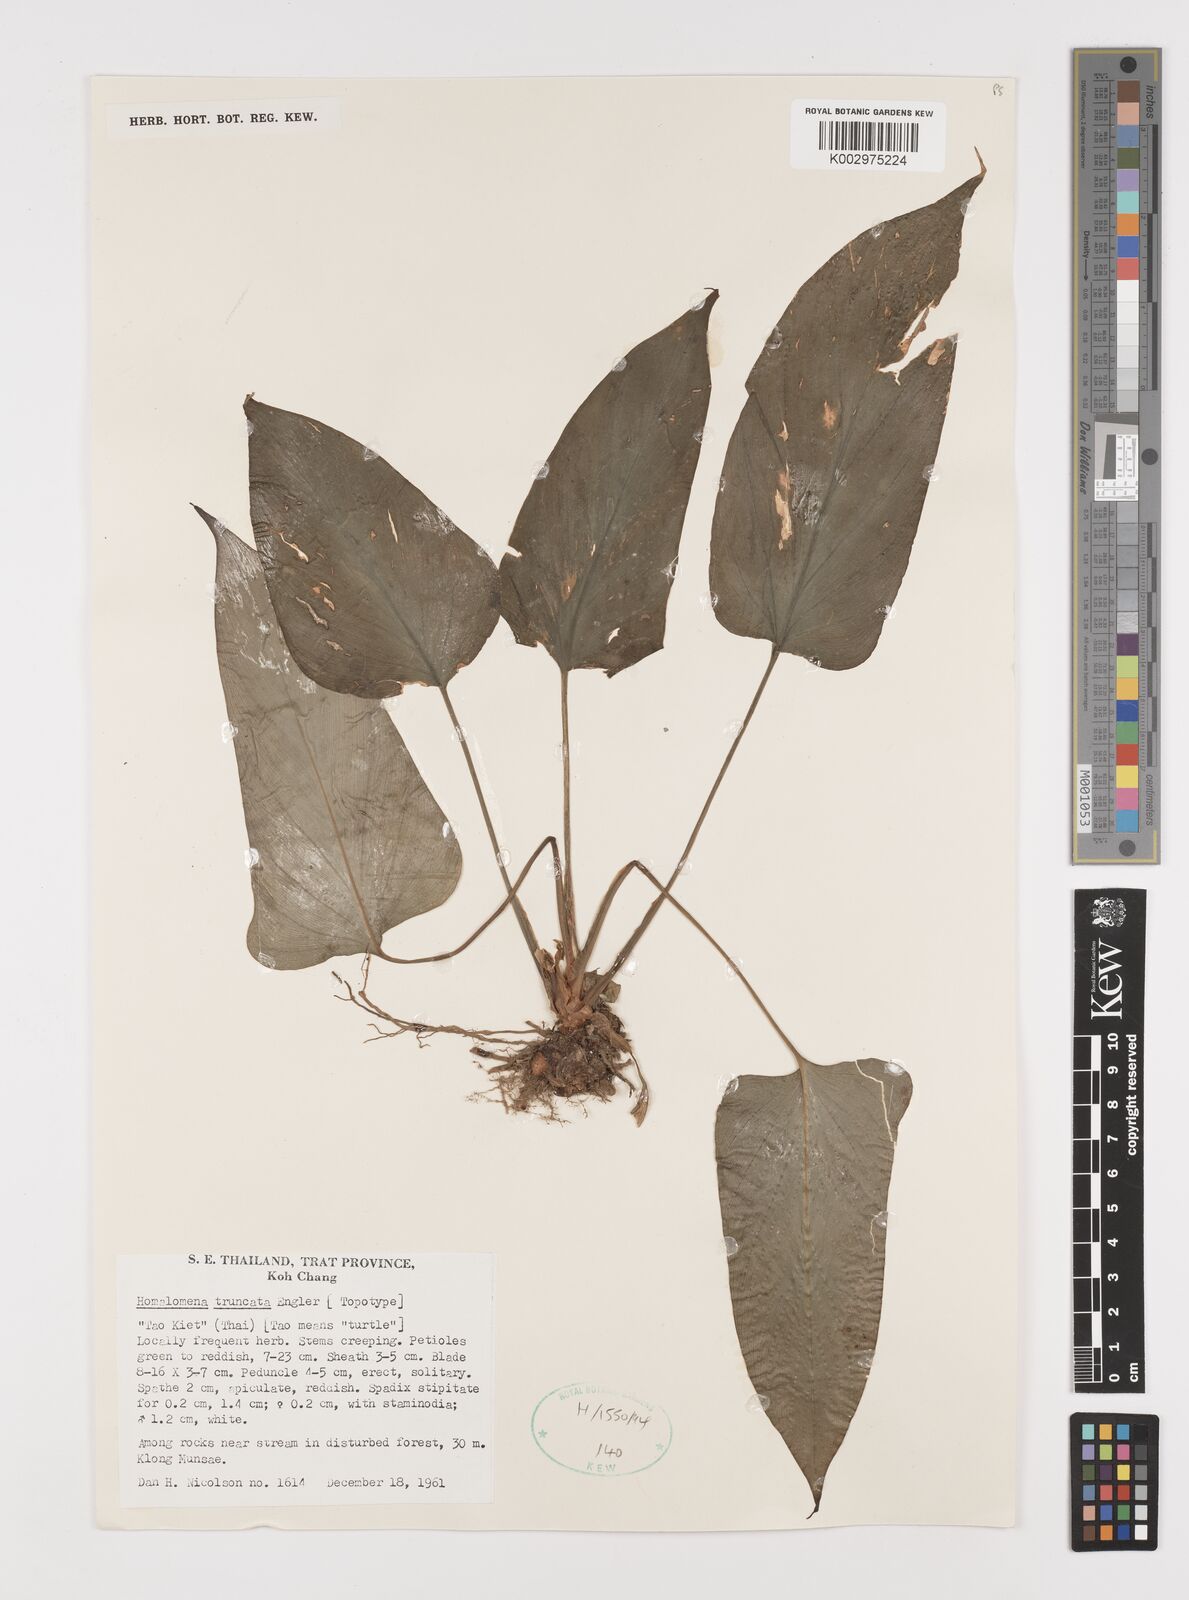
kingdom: Plantae
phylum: Tracheophyta
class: Liliopsida
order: Alismatales
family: Araceae
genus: Homalomena
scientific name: Homalomena truncata
